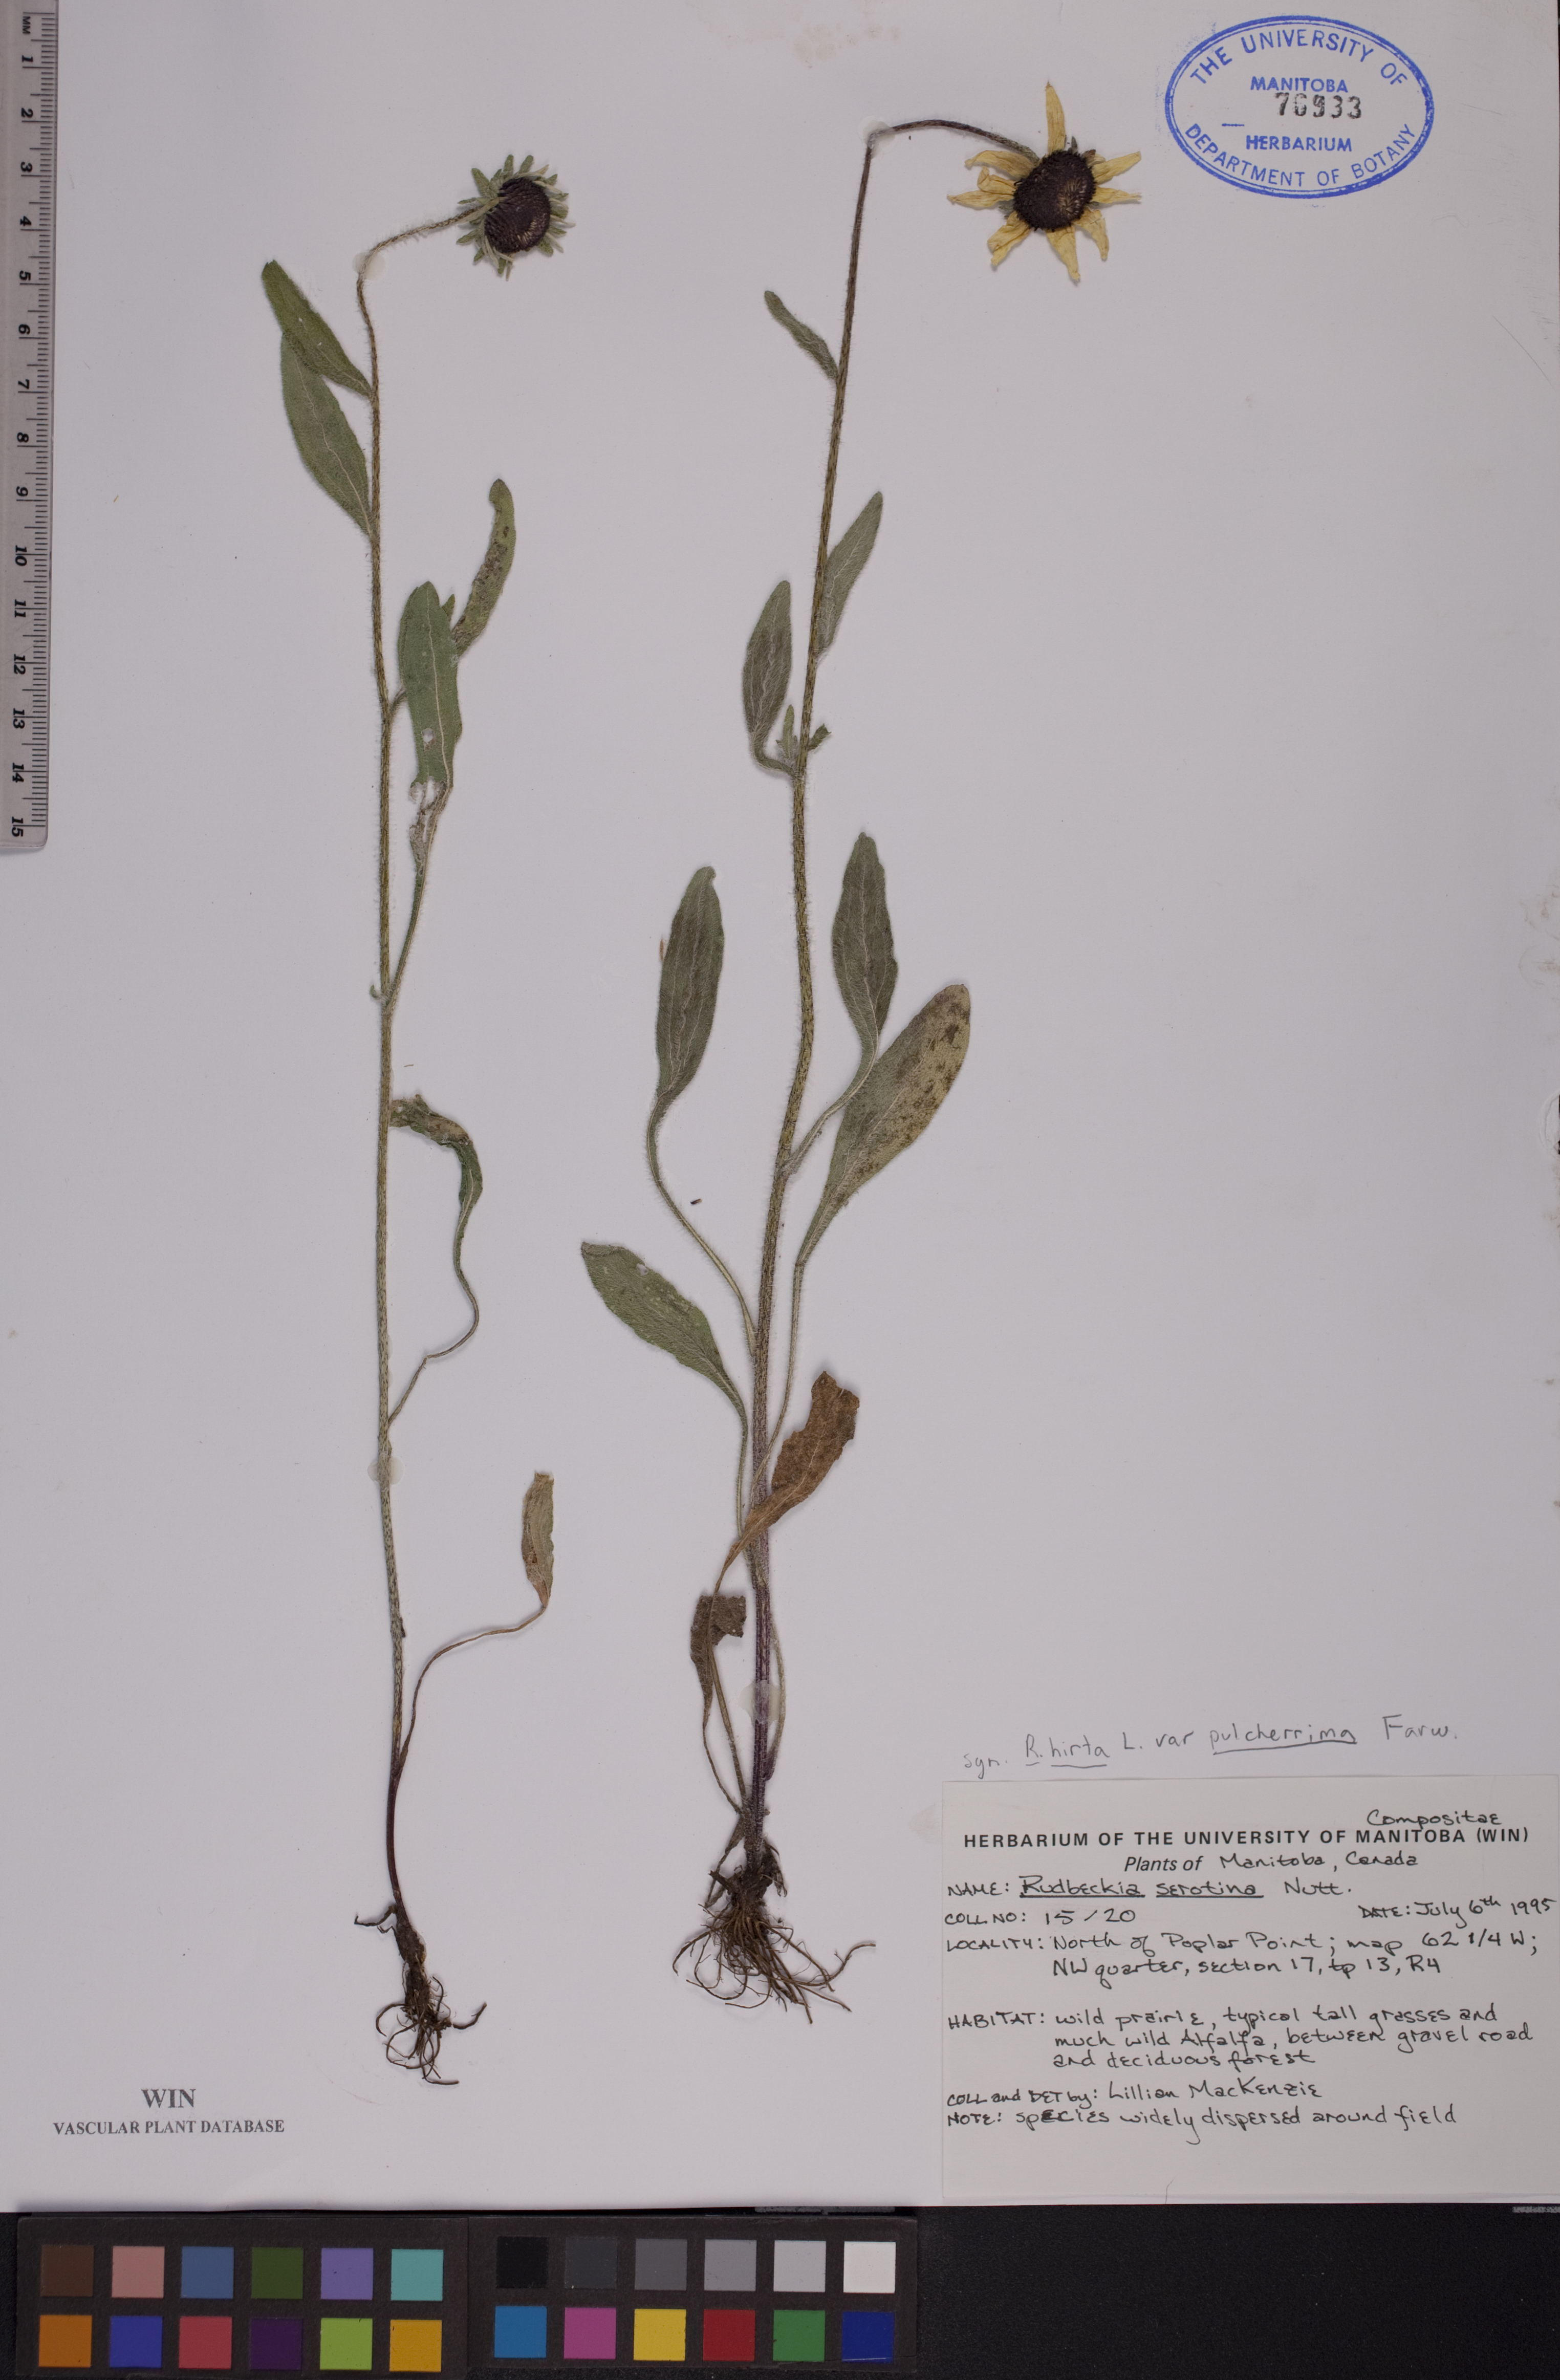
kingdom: Plantae
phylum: Tracheophyta
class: Magnoliopsida
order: Asterales
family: Asteraceae
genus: Echinacea
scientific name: Echinacea purpurea
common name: Broad-leaved purple coneflower
